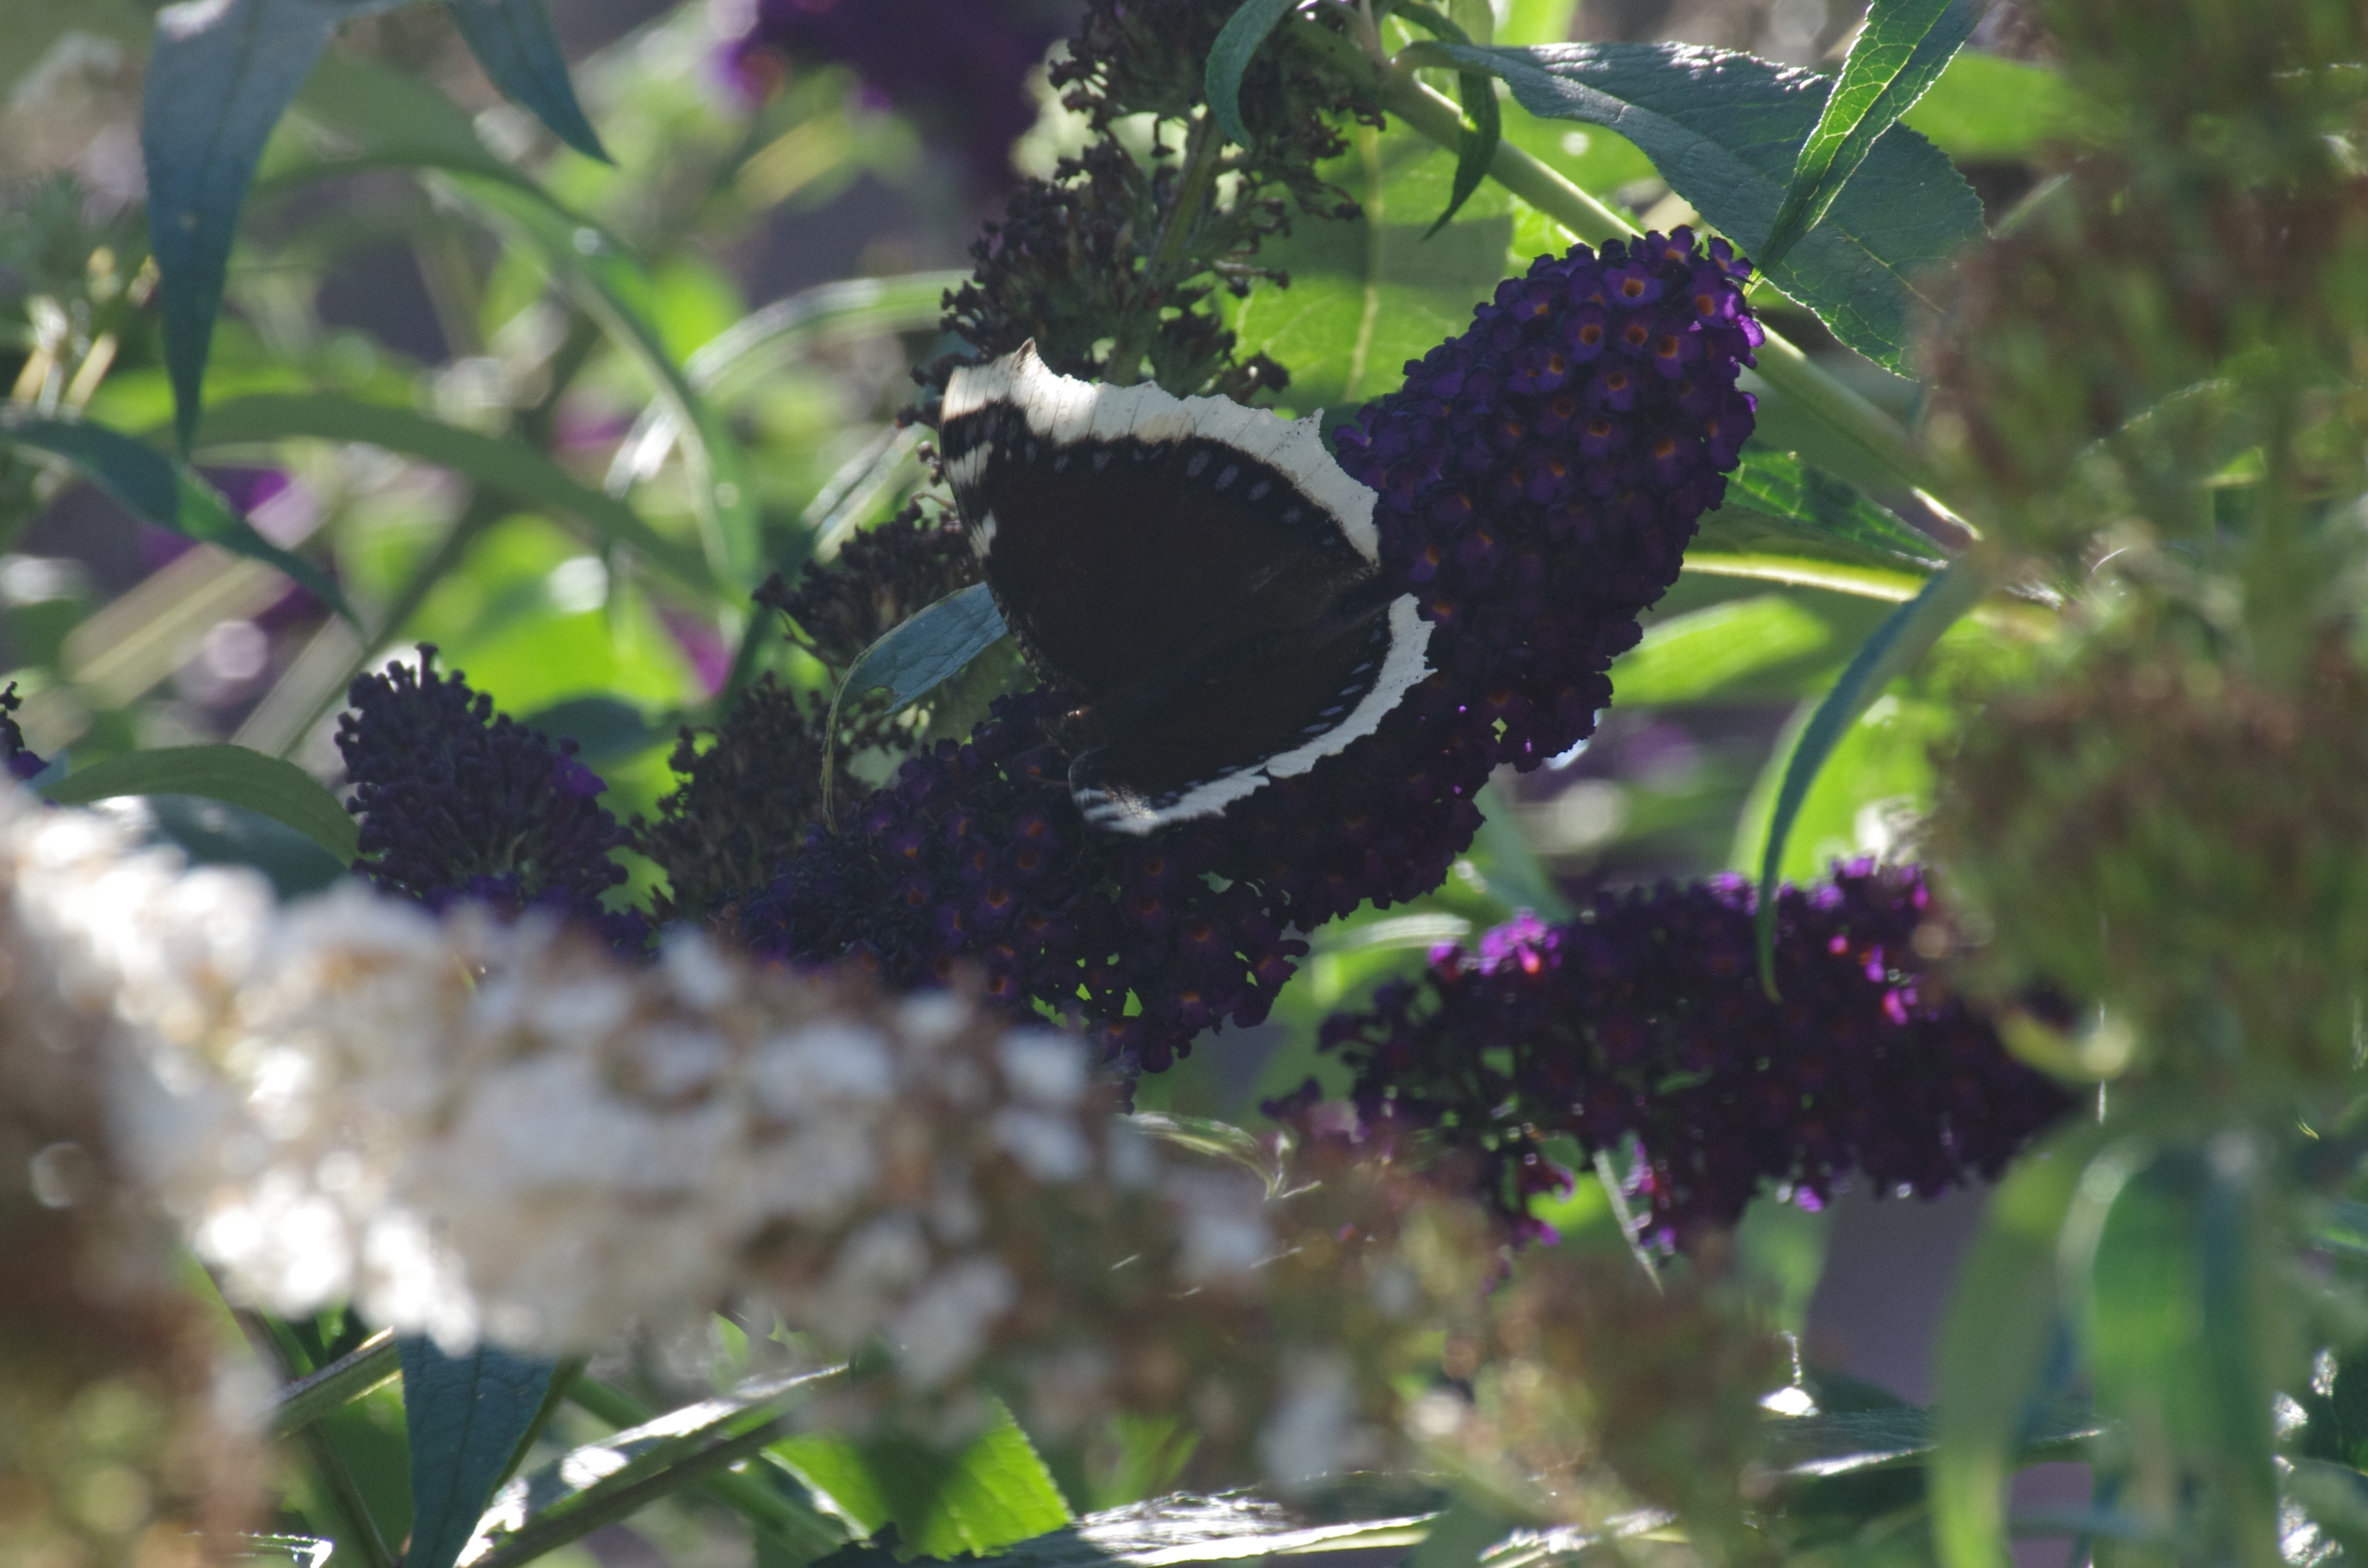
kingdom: Animalia
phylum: Arthropoda
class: Insecta
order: Lepidoptera
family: Nymphalidae
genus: Nymphalis
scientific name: Nymphalis antiopa
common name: Sørgekåbe
